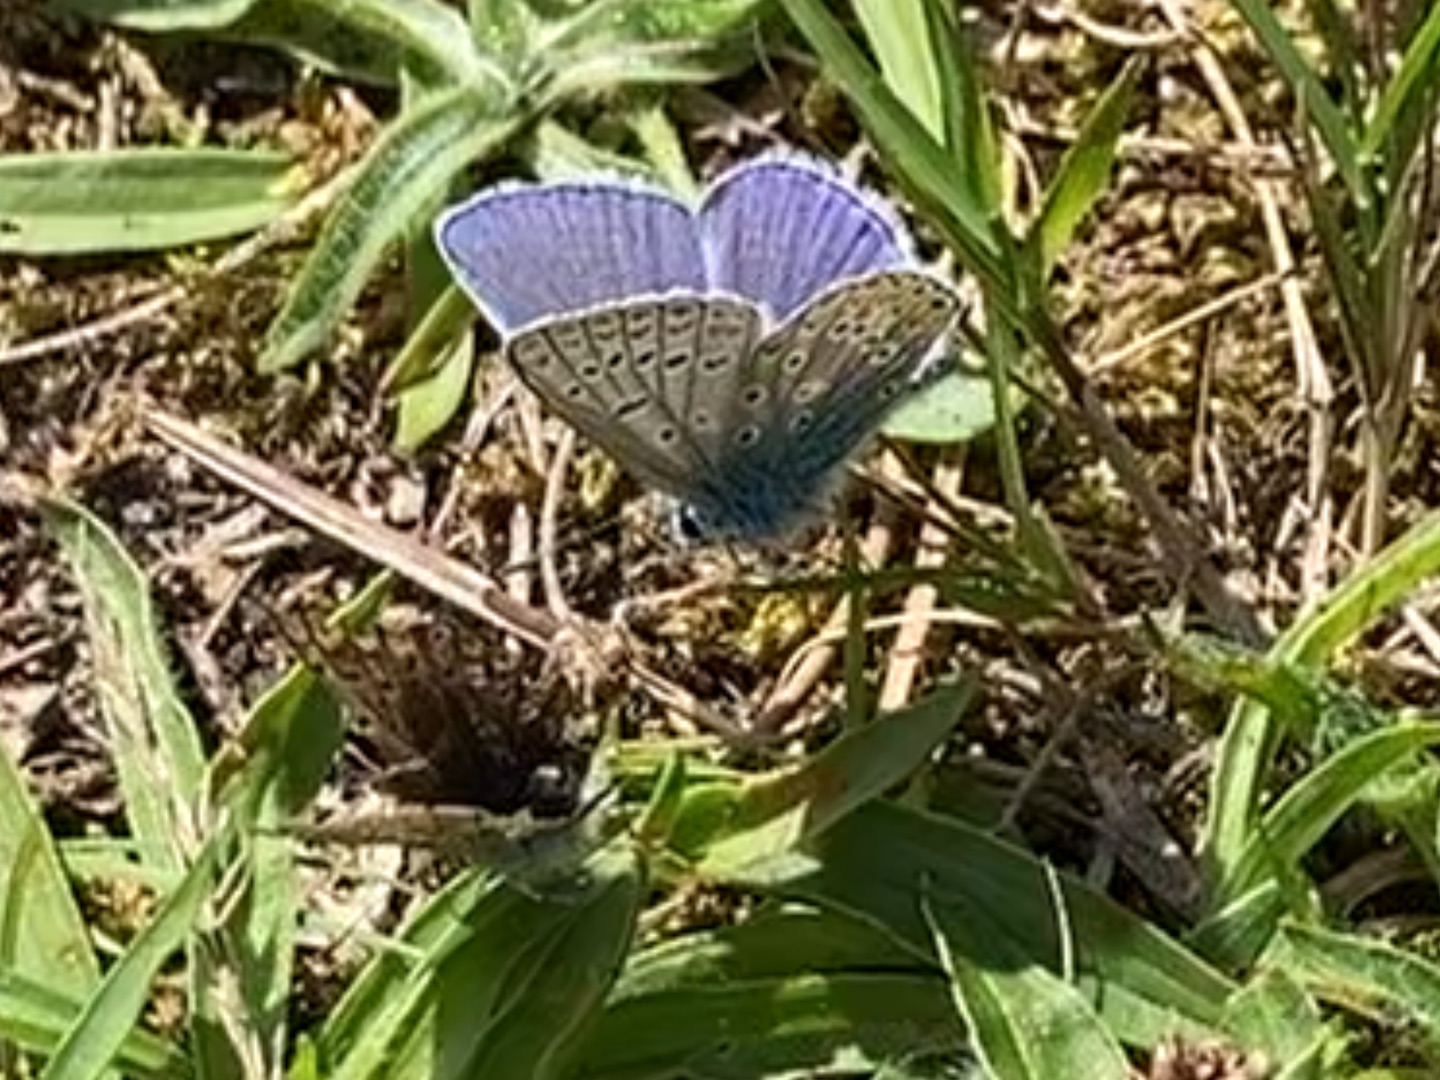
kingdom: Animalia
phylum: Arthropoda
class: Insecta
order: Lepidoptera
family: Lycaenidae
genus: Polyommatus
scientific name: Polyommatus icarus
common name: Almindelig blåfugl
